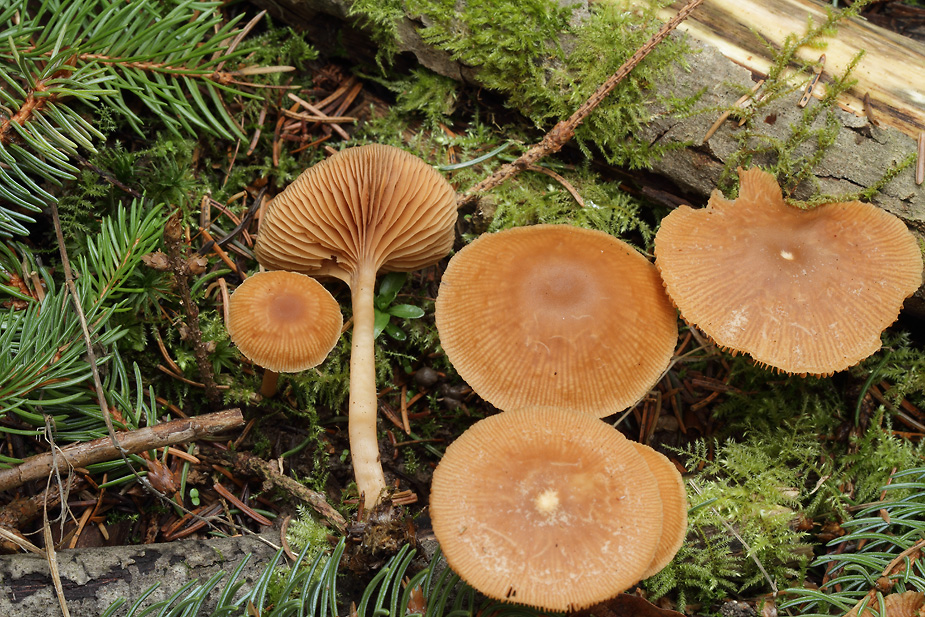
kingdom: Fungi
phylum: Basidiomycota
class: Agaricomycetes
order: Agaricales
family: Tubariaceae
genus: Tubaria
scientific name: Tubaria furfuracea
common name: kliddet fnughat
